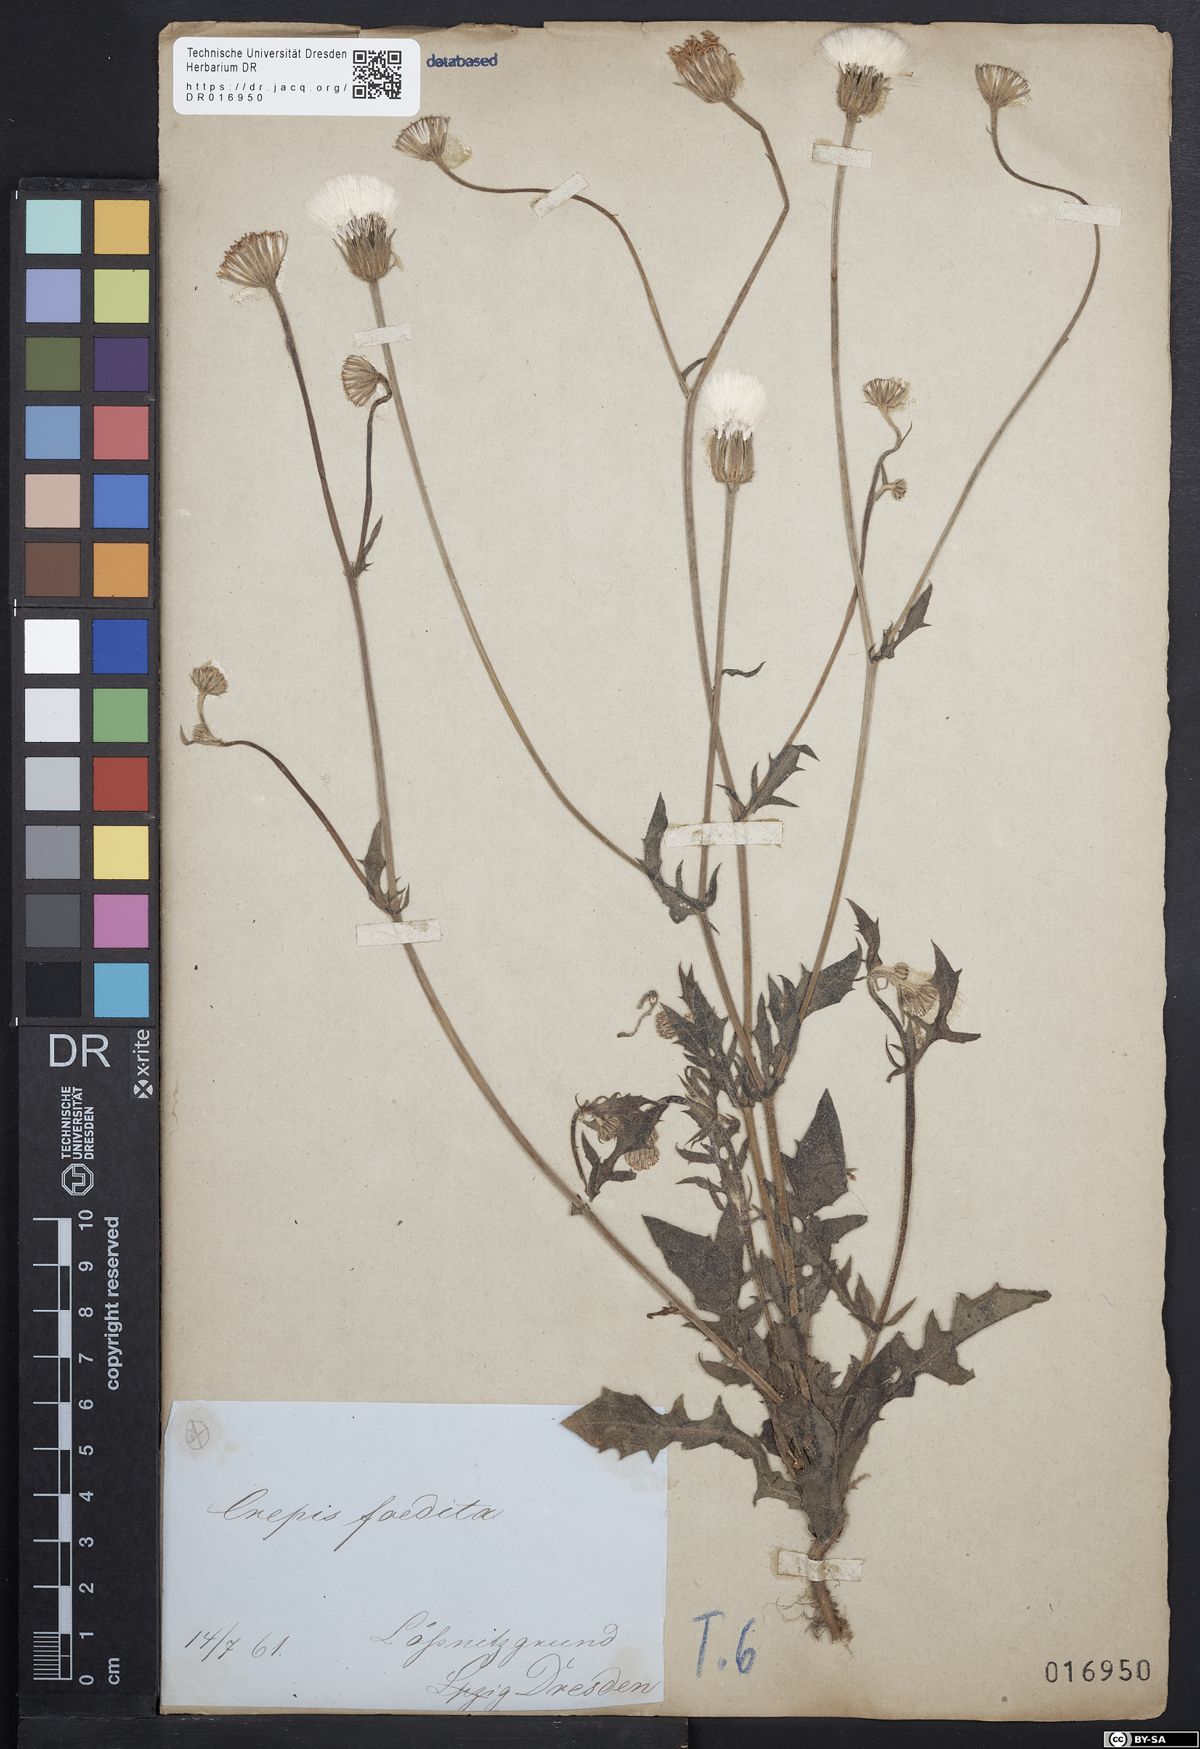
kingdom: Plantae
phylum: Tracheophyta
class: Magnoliopsida
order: Asterales
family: Asteraceae
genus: Crepis
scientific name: Crepis foetida
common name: Stinking hawk's-beard
